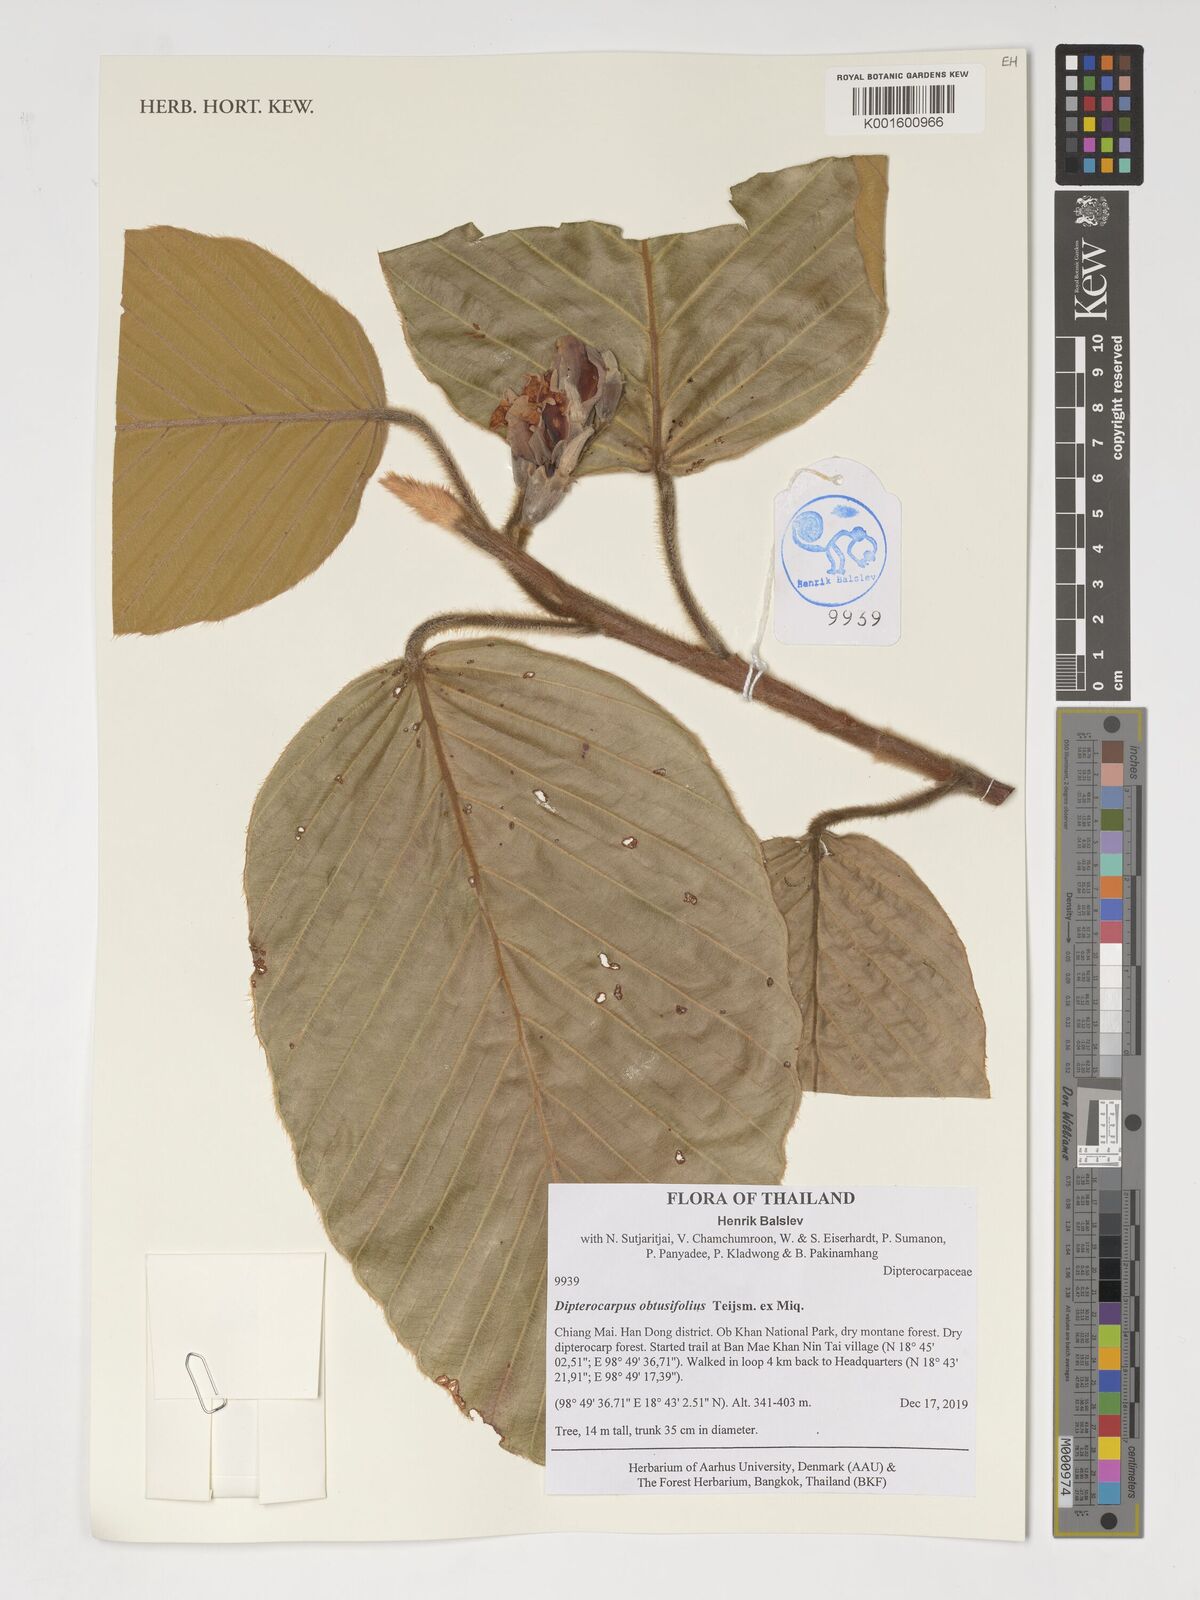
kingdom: Plantae
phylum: Tracheophyta
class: Magnoliopsida
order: Malvales
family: Dipterocarpaceae
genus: Dipterocarpus
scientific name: Dipterocarpus obtusifolius
